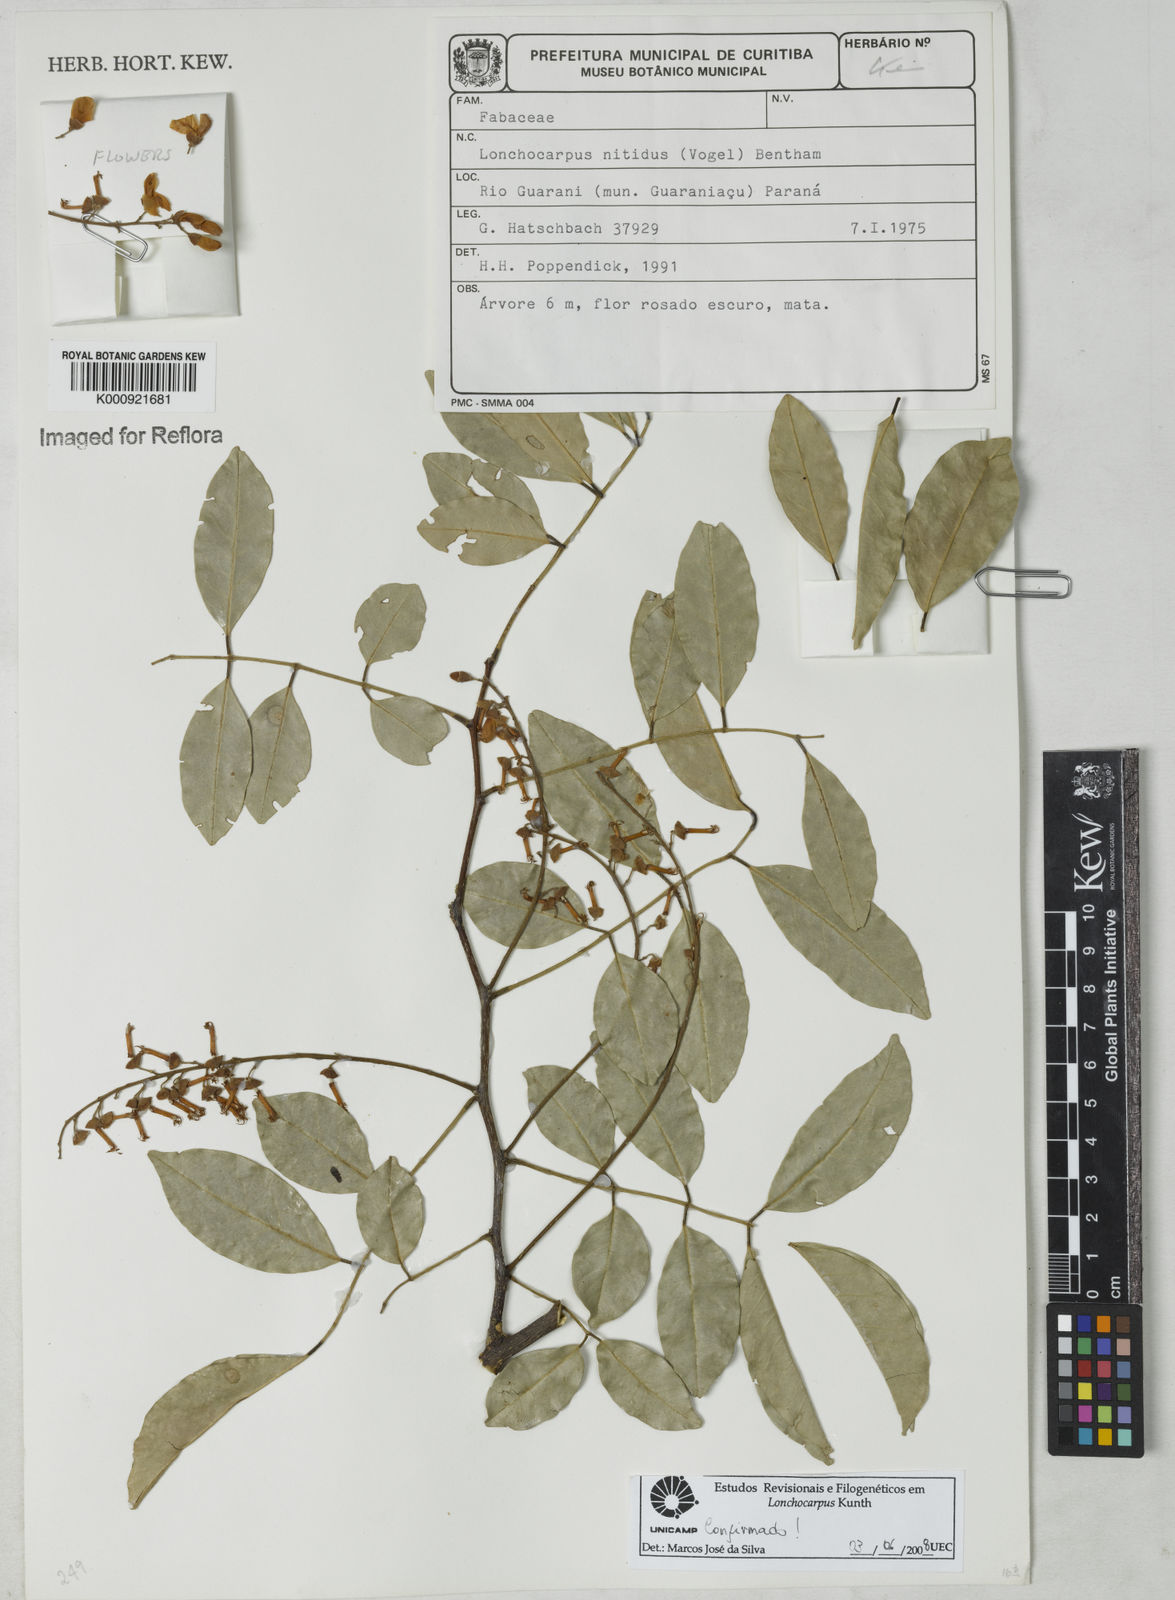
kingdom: Plantae
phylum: Tracheophyta
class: Magnoliopsida
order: Fabales
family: Fabaceae
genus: Lonchocarpus
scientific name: Lonchocarpus nitidus
